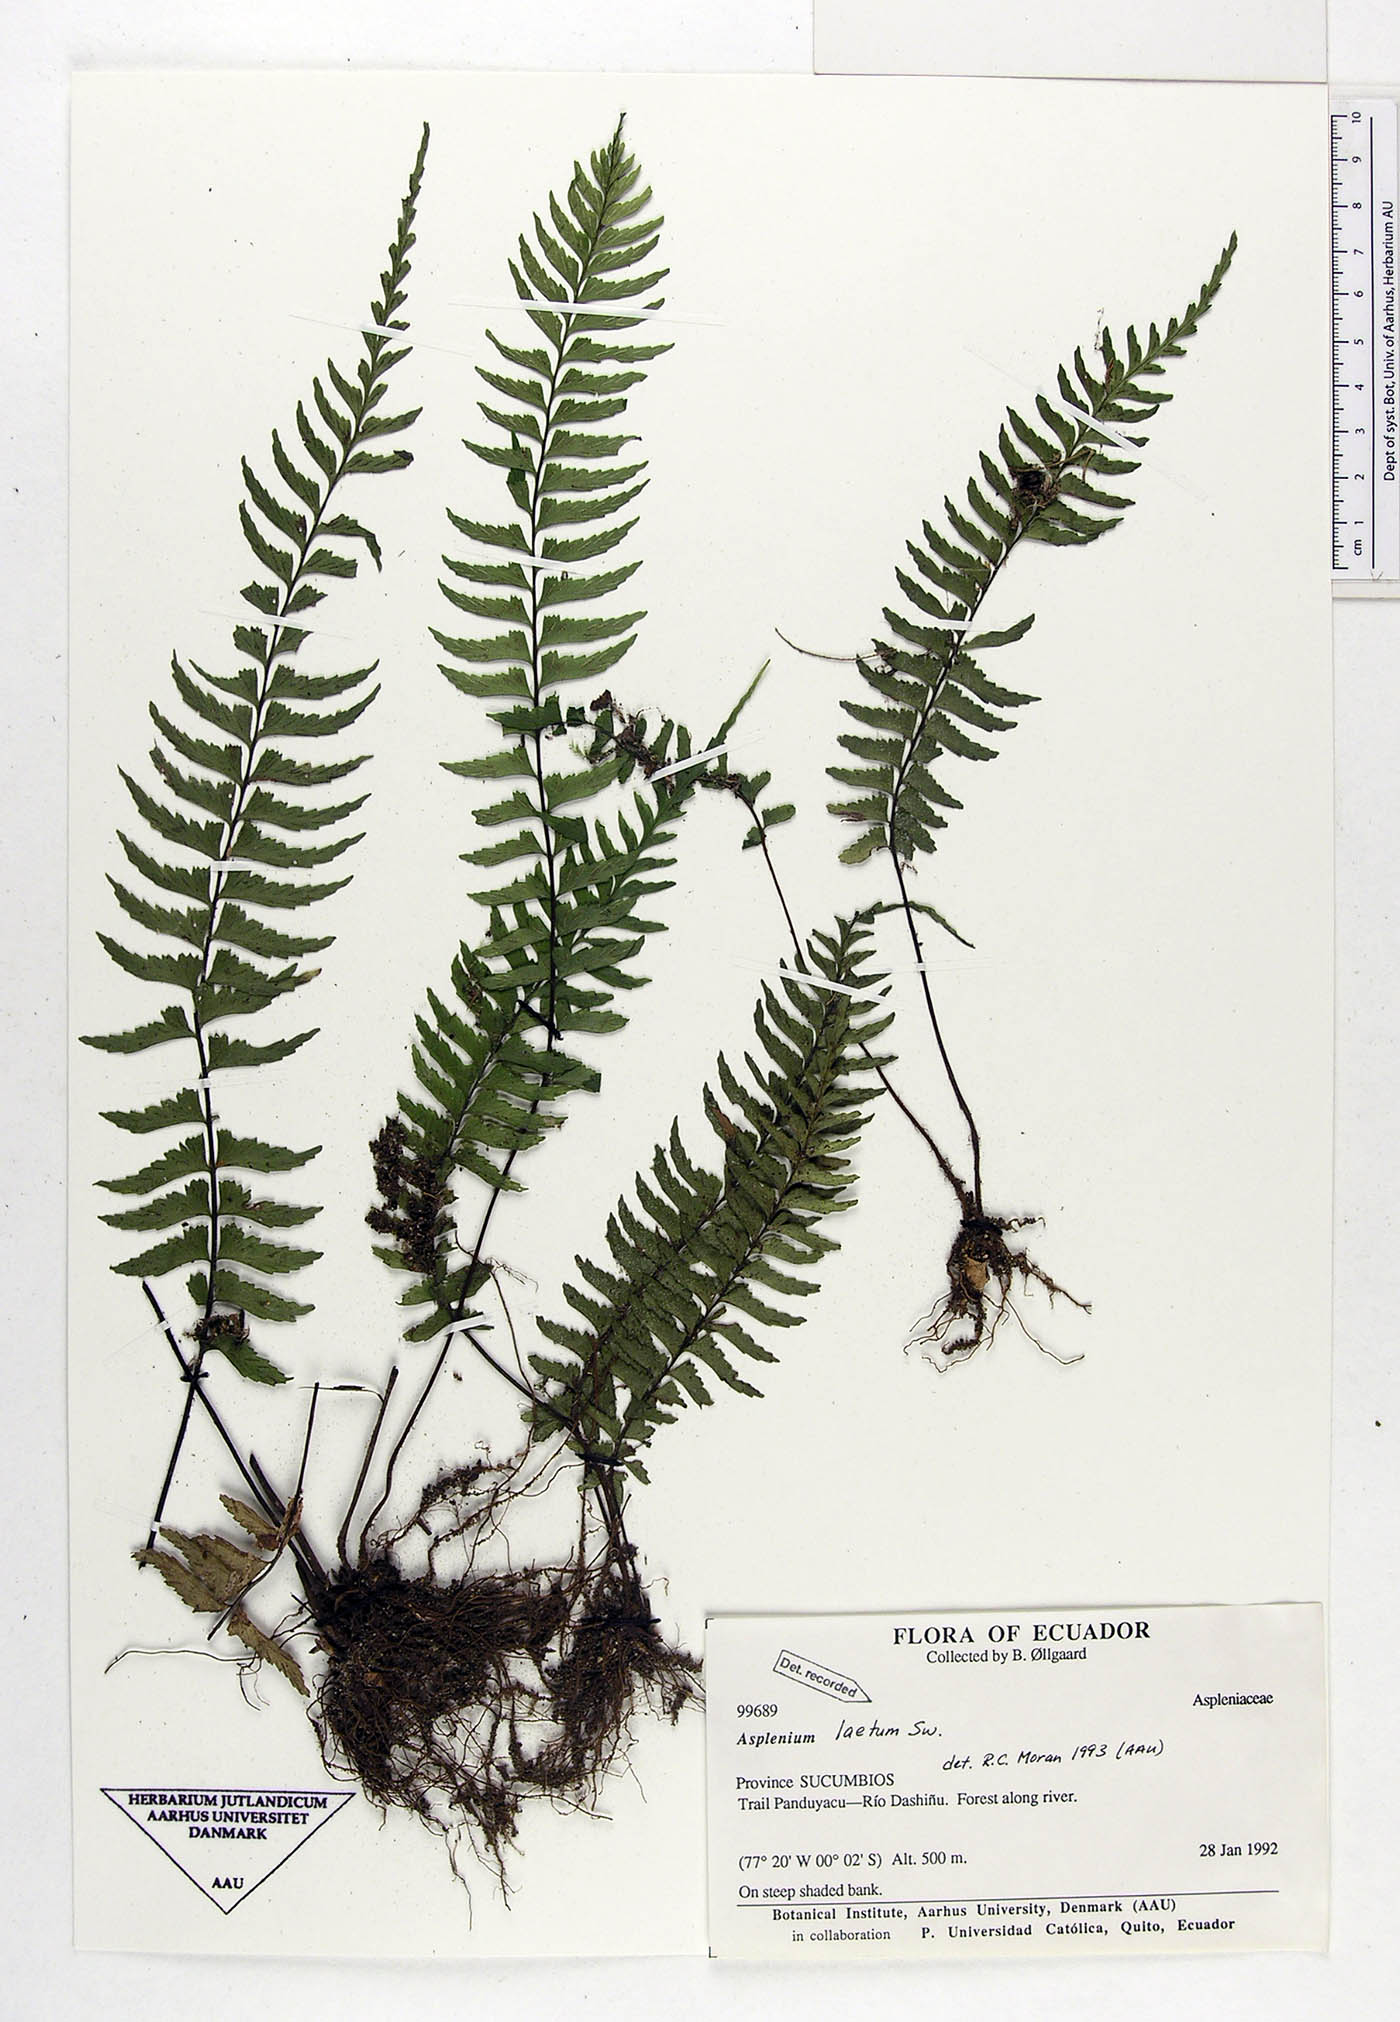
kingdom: Plantae
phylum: Tracheophyta
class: Polypodiopsida
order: Polypodiales
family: Aspleniaceae
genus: Hymenasplenium
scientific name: Hymenasplenium laetum
